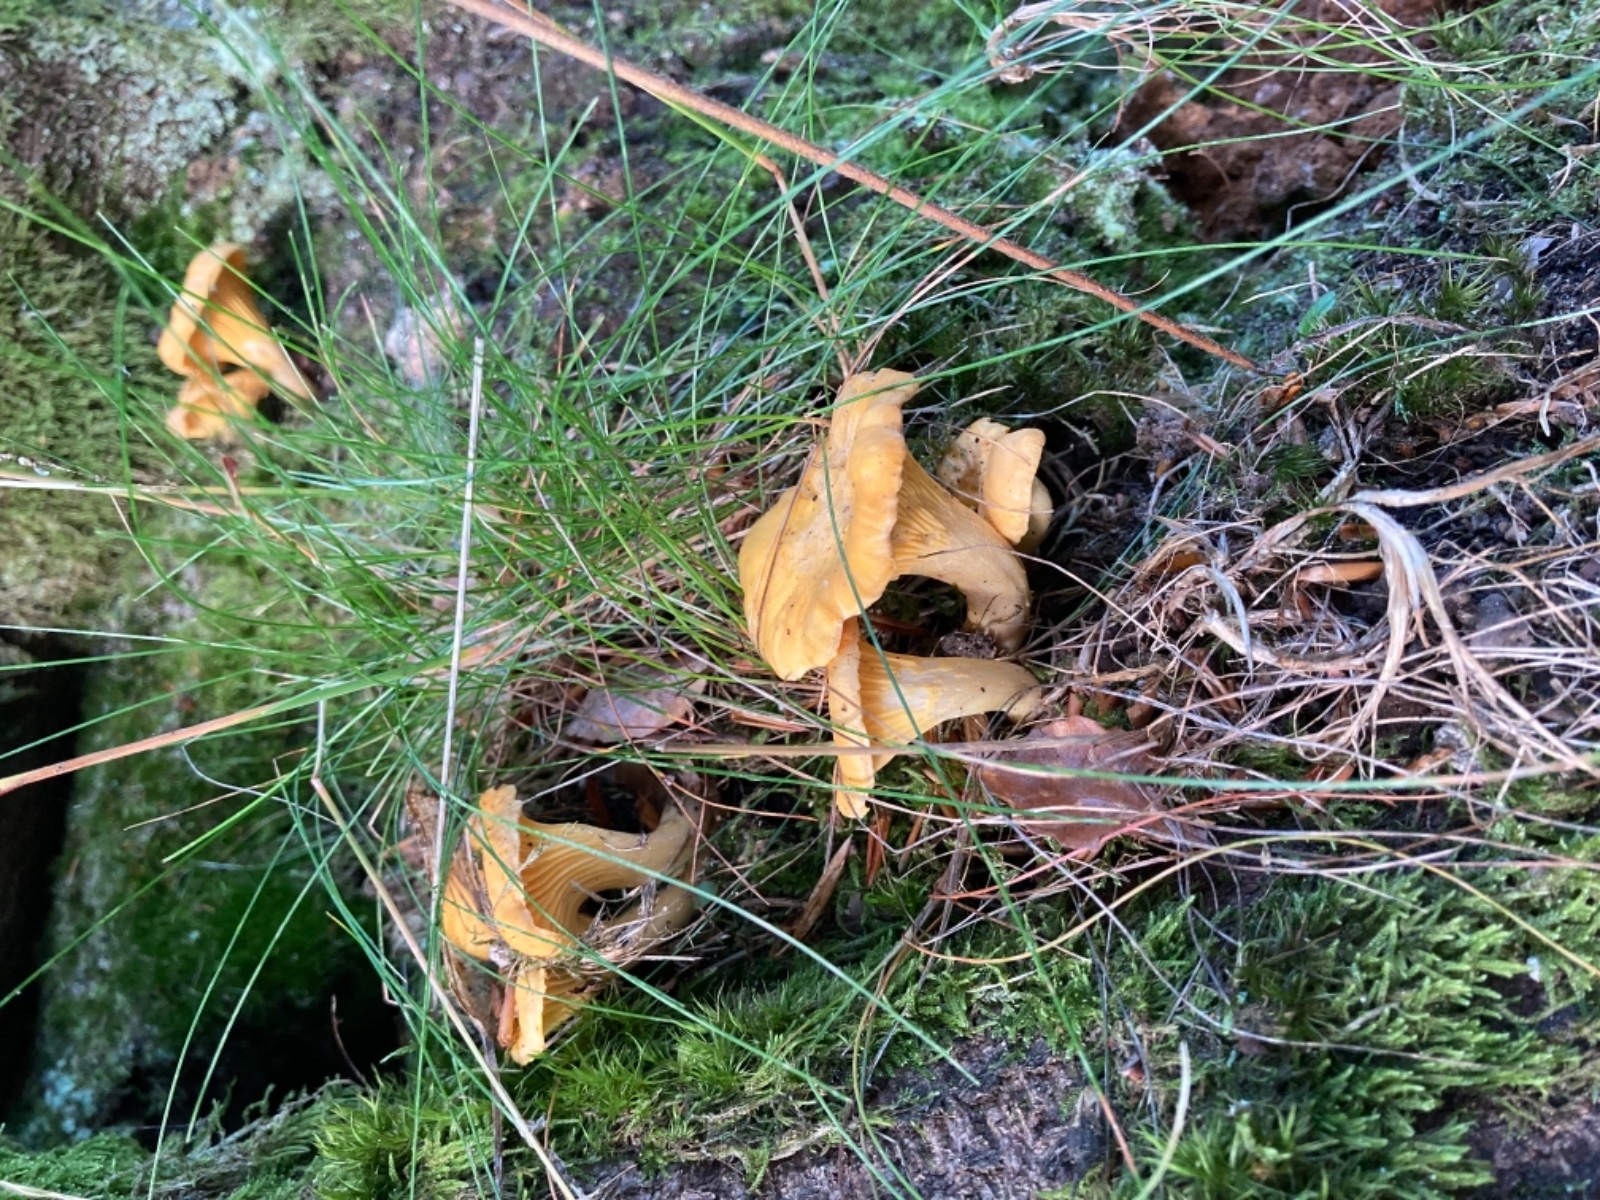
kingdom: Fungi
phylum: Basidiomycota
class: Agaricomycetes
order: Cantharellales
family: Hydnaceae
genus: Cantharellus
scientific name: Cantharellus pallens
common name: bleg kantarel
